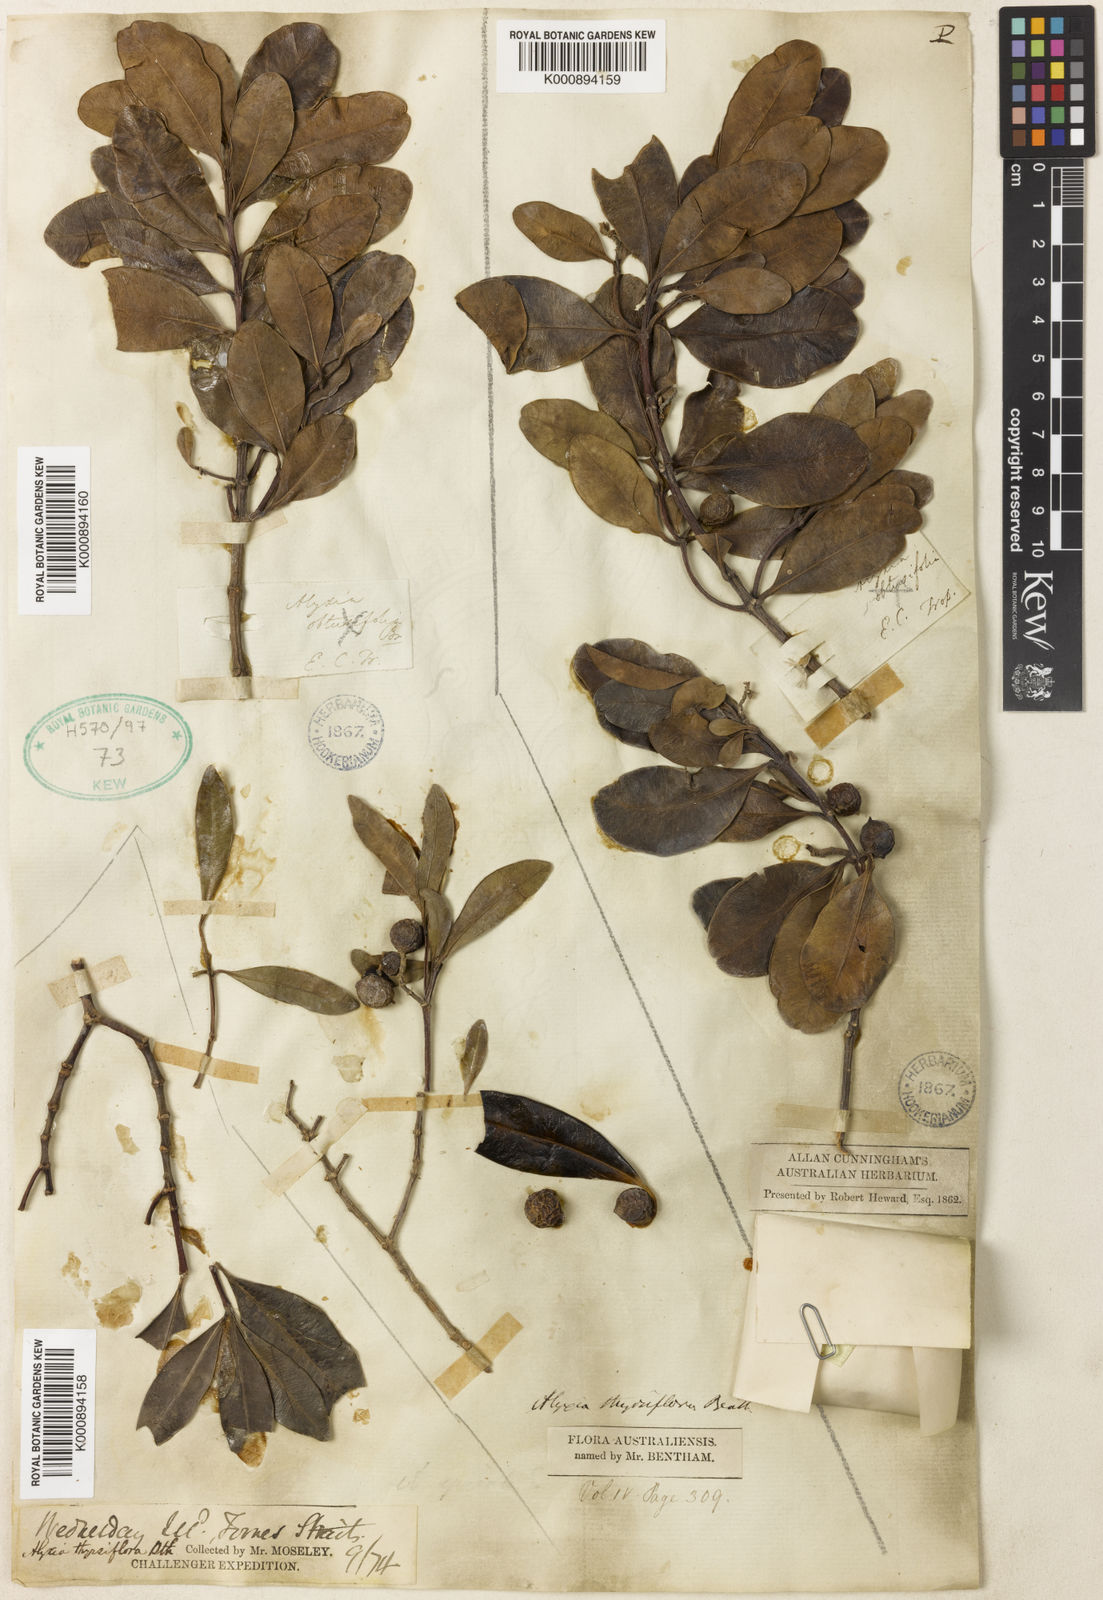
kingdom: Plantae
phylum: Tracheophyta
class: Magnoliopsida
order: Gentianales
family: Apocynaceae
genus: Alyxia
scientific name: Alyxia spicata
